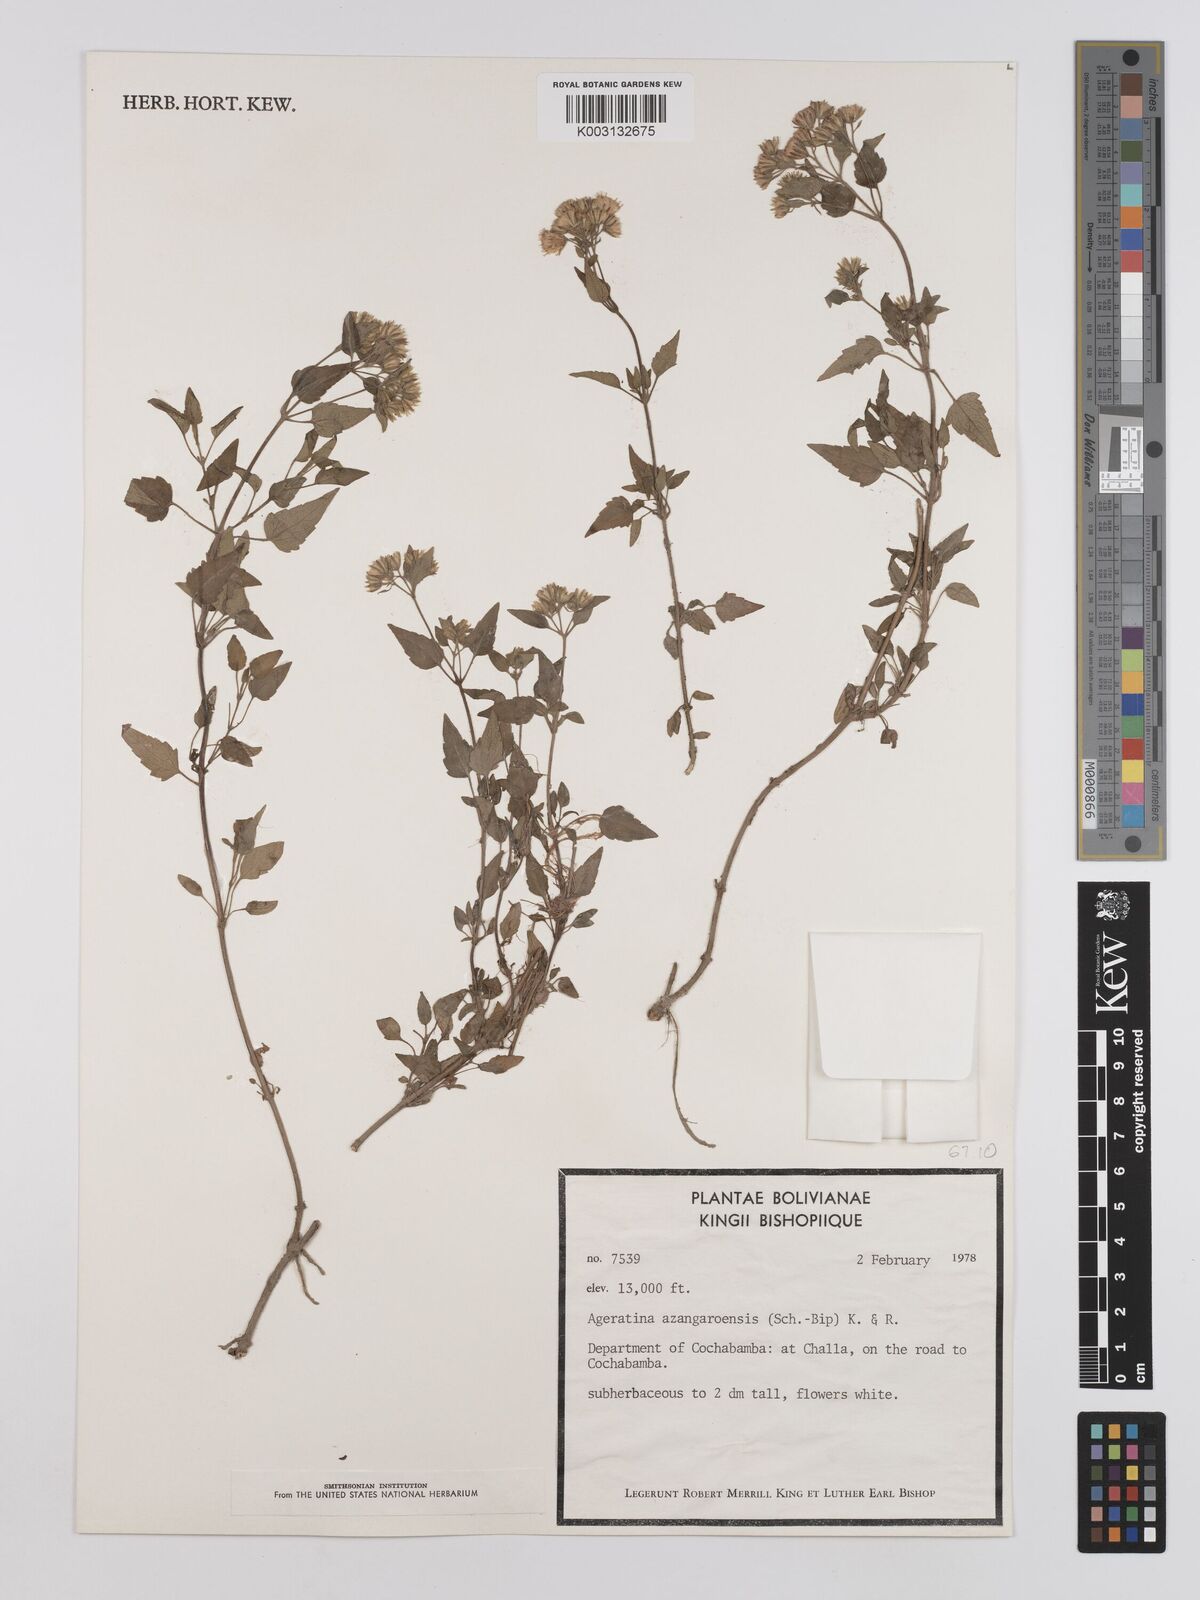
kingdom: Plantae
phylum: Tracheophyta
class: Magnoliopsida
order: Asterales
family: Asteraceae
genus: Ageratina
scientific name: Ageratina glechonophylla
